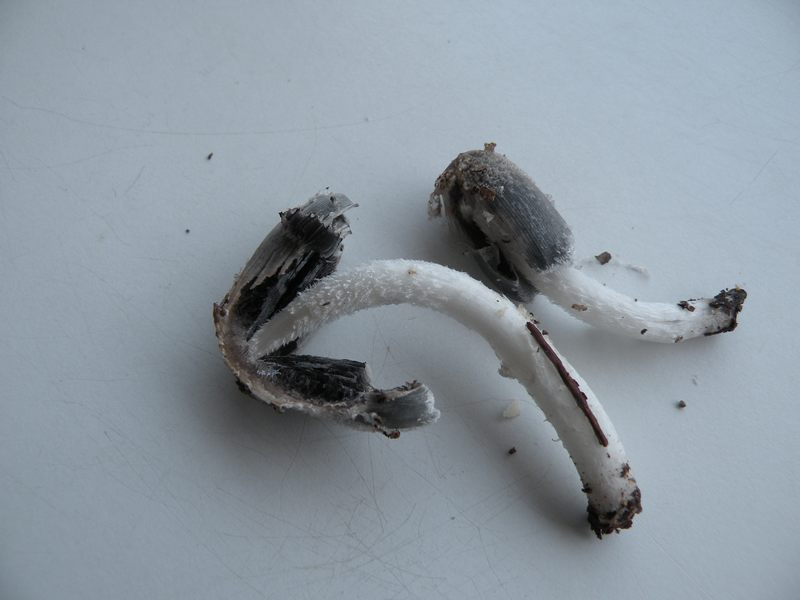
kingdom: Fungi
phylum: Basidiomycota
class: Agaricomycetes
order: Agaricales
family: Psathyrellaceae
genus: Coprinopsis
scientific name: Coprinopsis lagopus
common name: dunstokket blækhat
